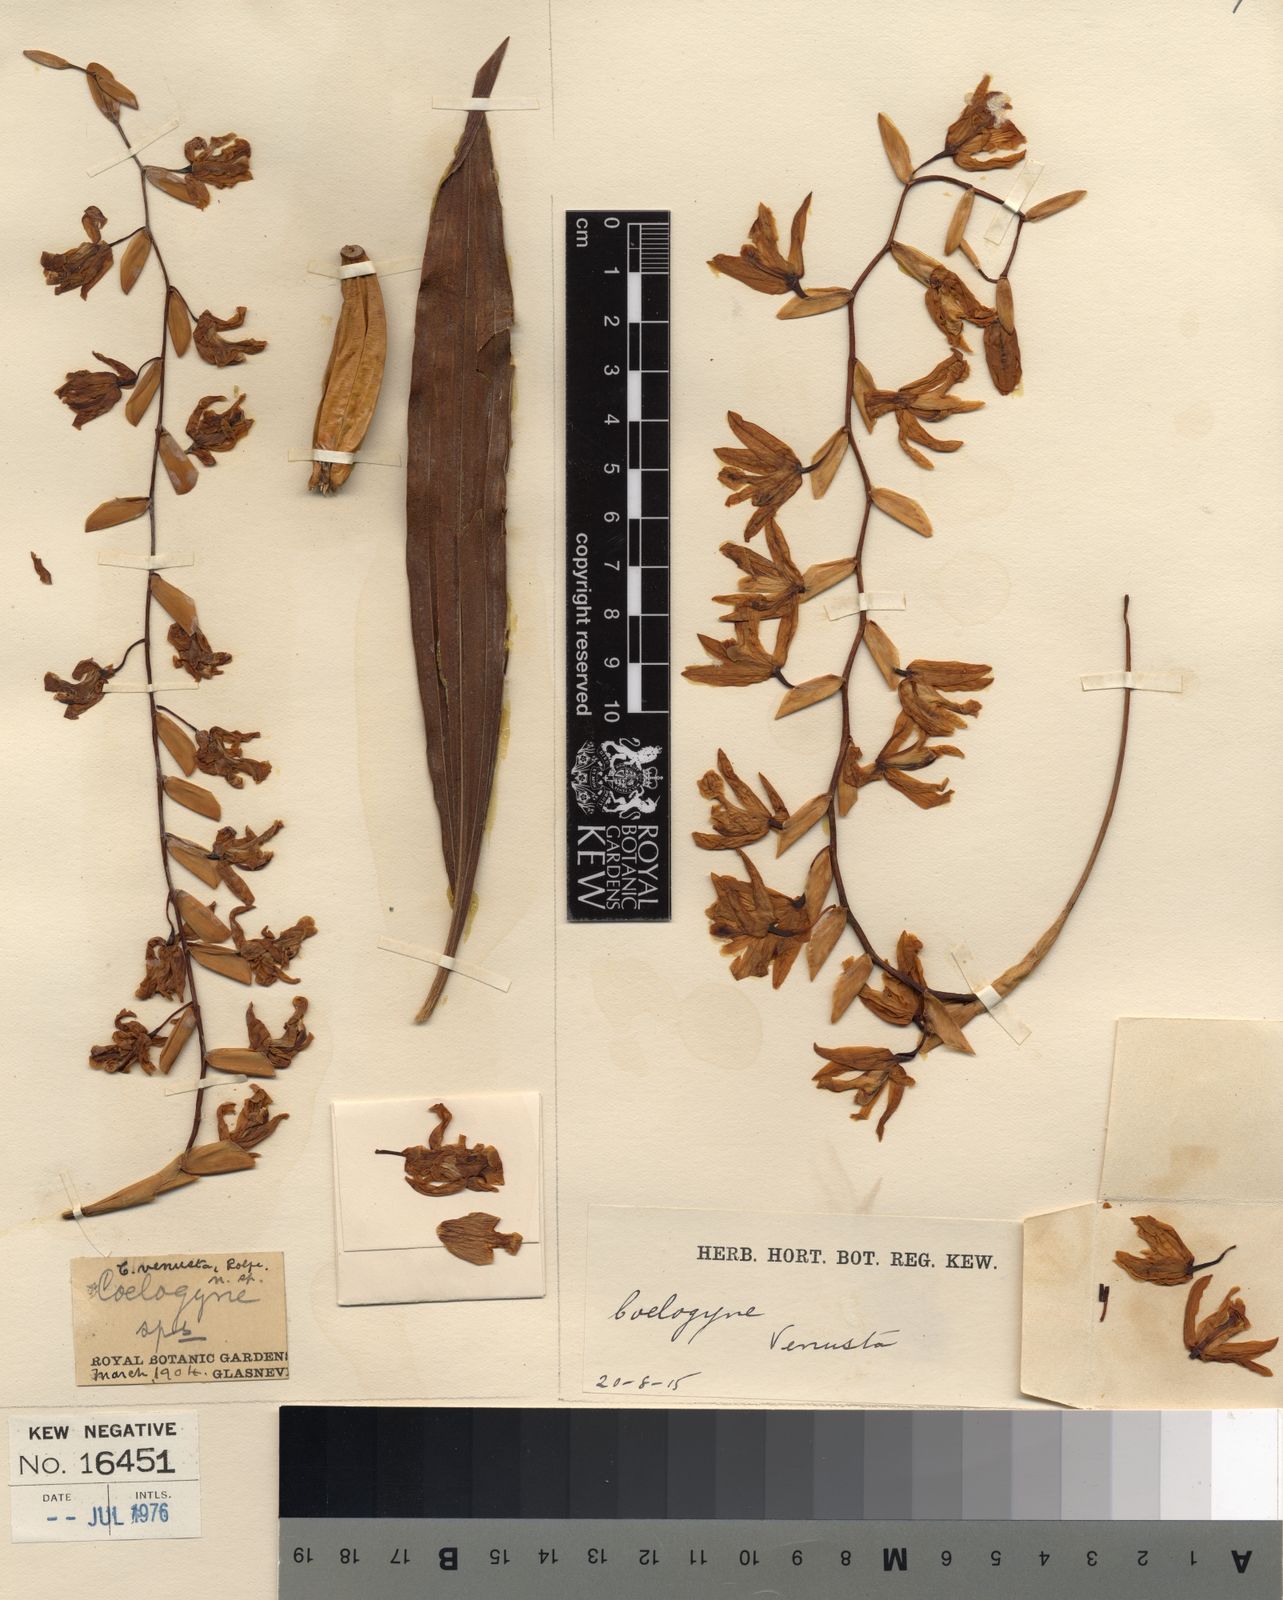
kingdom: Plantae
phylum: Tracheophyta
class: Liliopsida
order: Asparagales
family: Orchidaceae
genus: Coelogyne
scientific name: Coelogyne venusta
